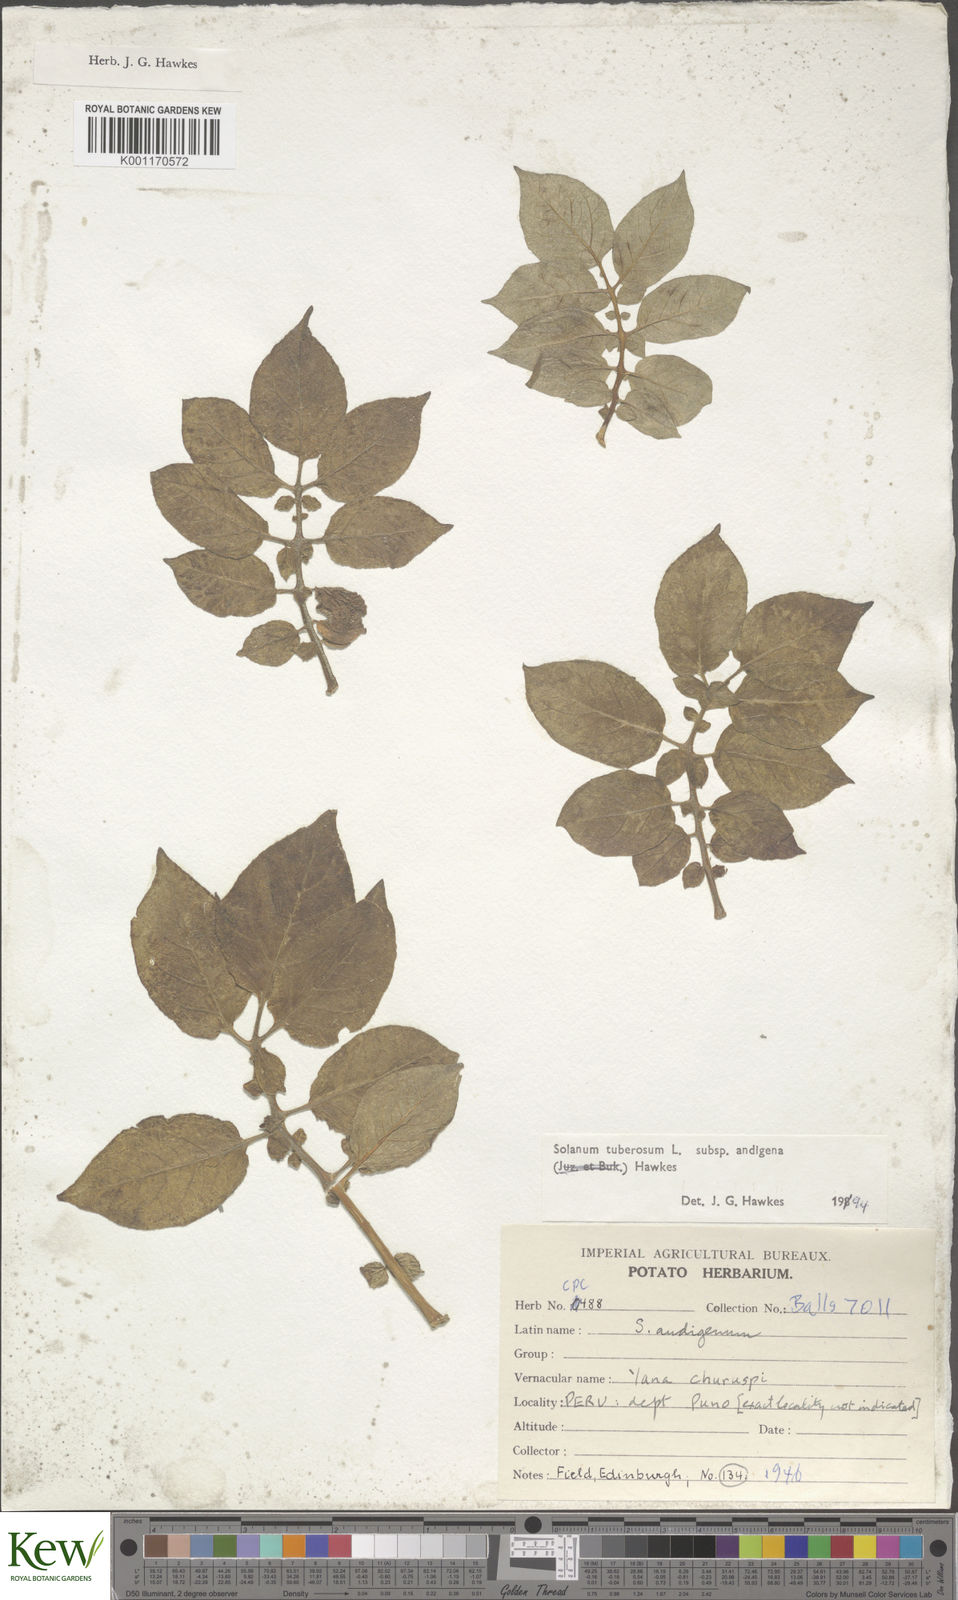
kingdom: Plantae
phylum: Tracheophyta
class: Magnoliopsida
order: Solanales
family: Solanaceae
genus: Solanum
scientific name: Solanum tuberosum
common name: Potato
